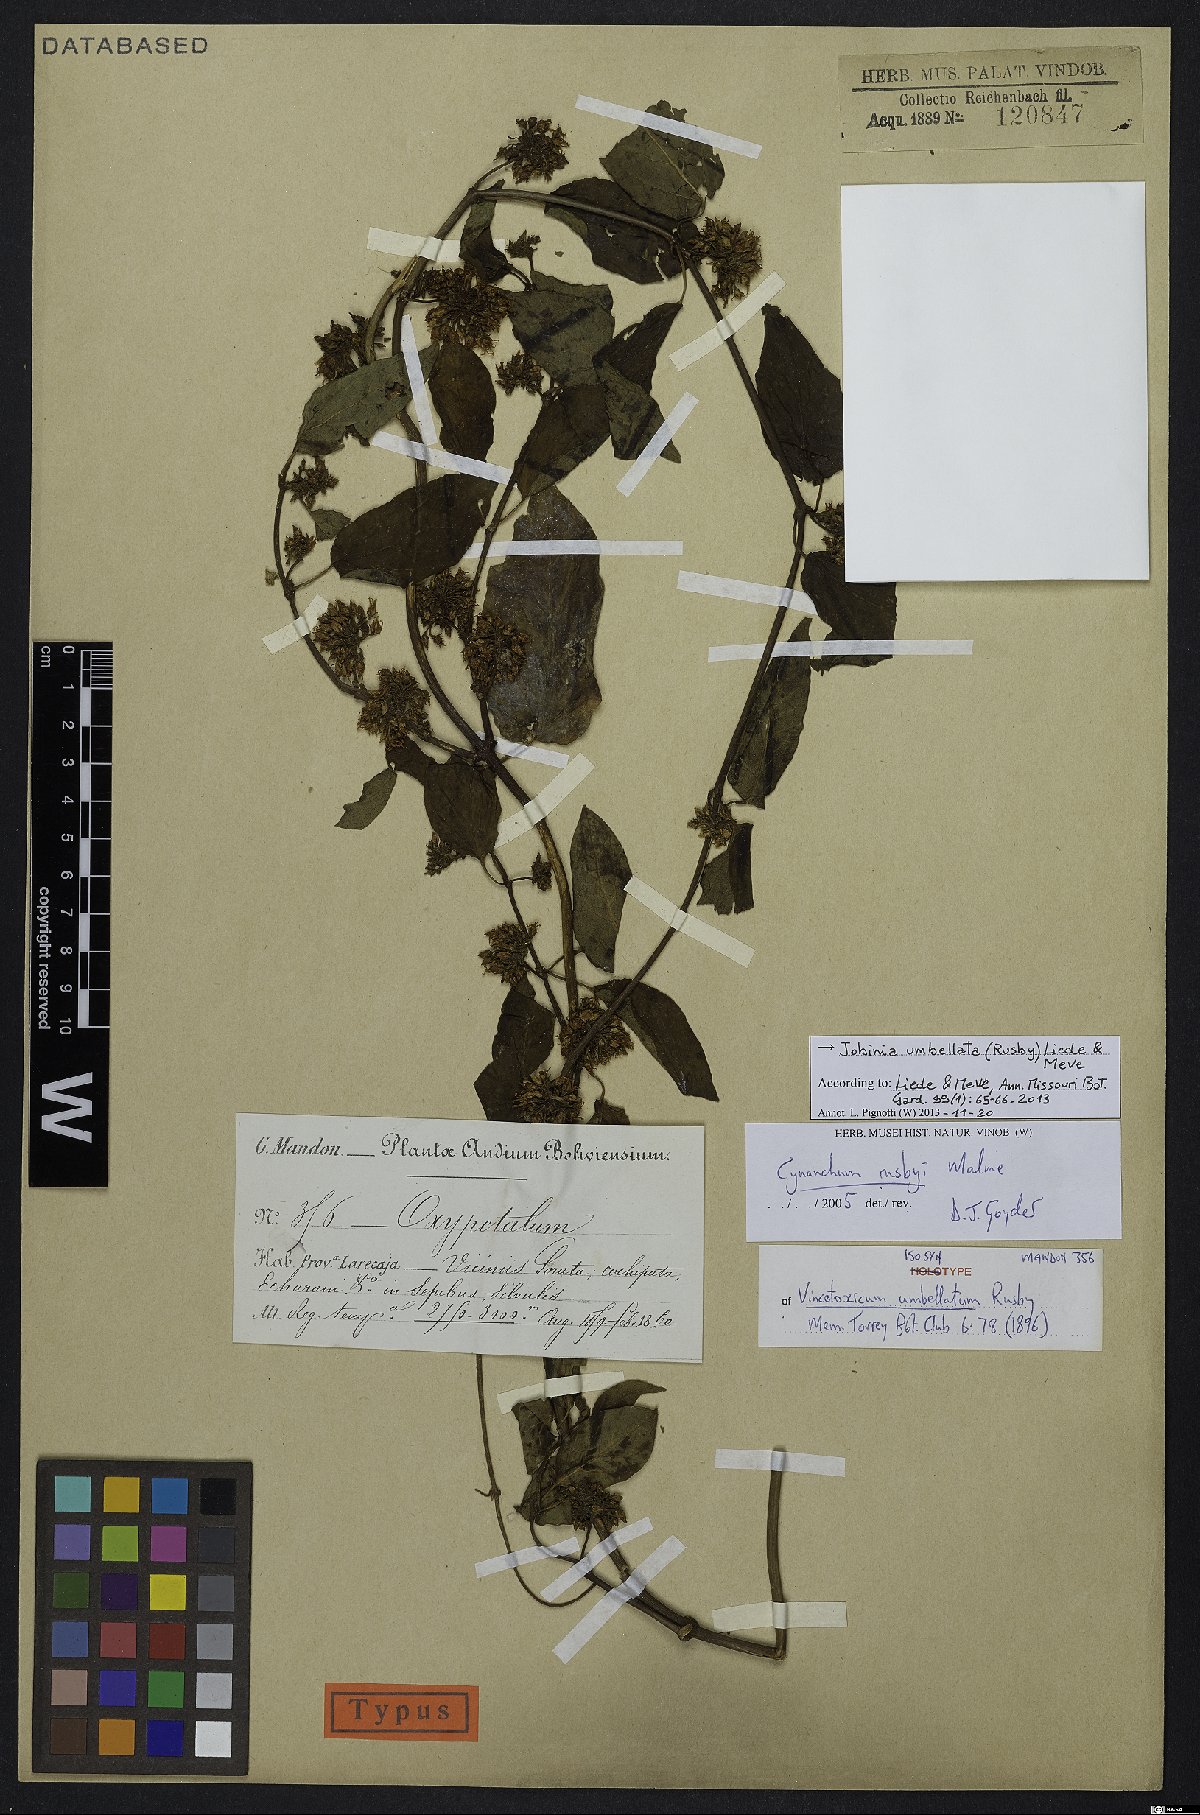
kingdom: Plantae
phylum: Tracheophyta
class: Magnoliopsida
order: Gentianales
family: Apocynaceae
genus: Jobinia
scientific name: Jobinia umbellata
